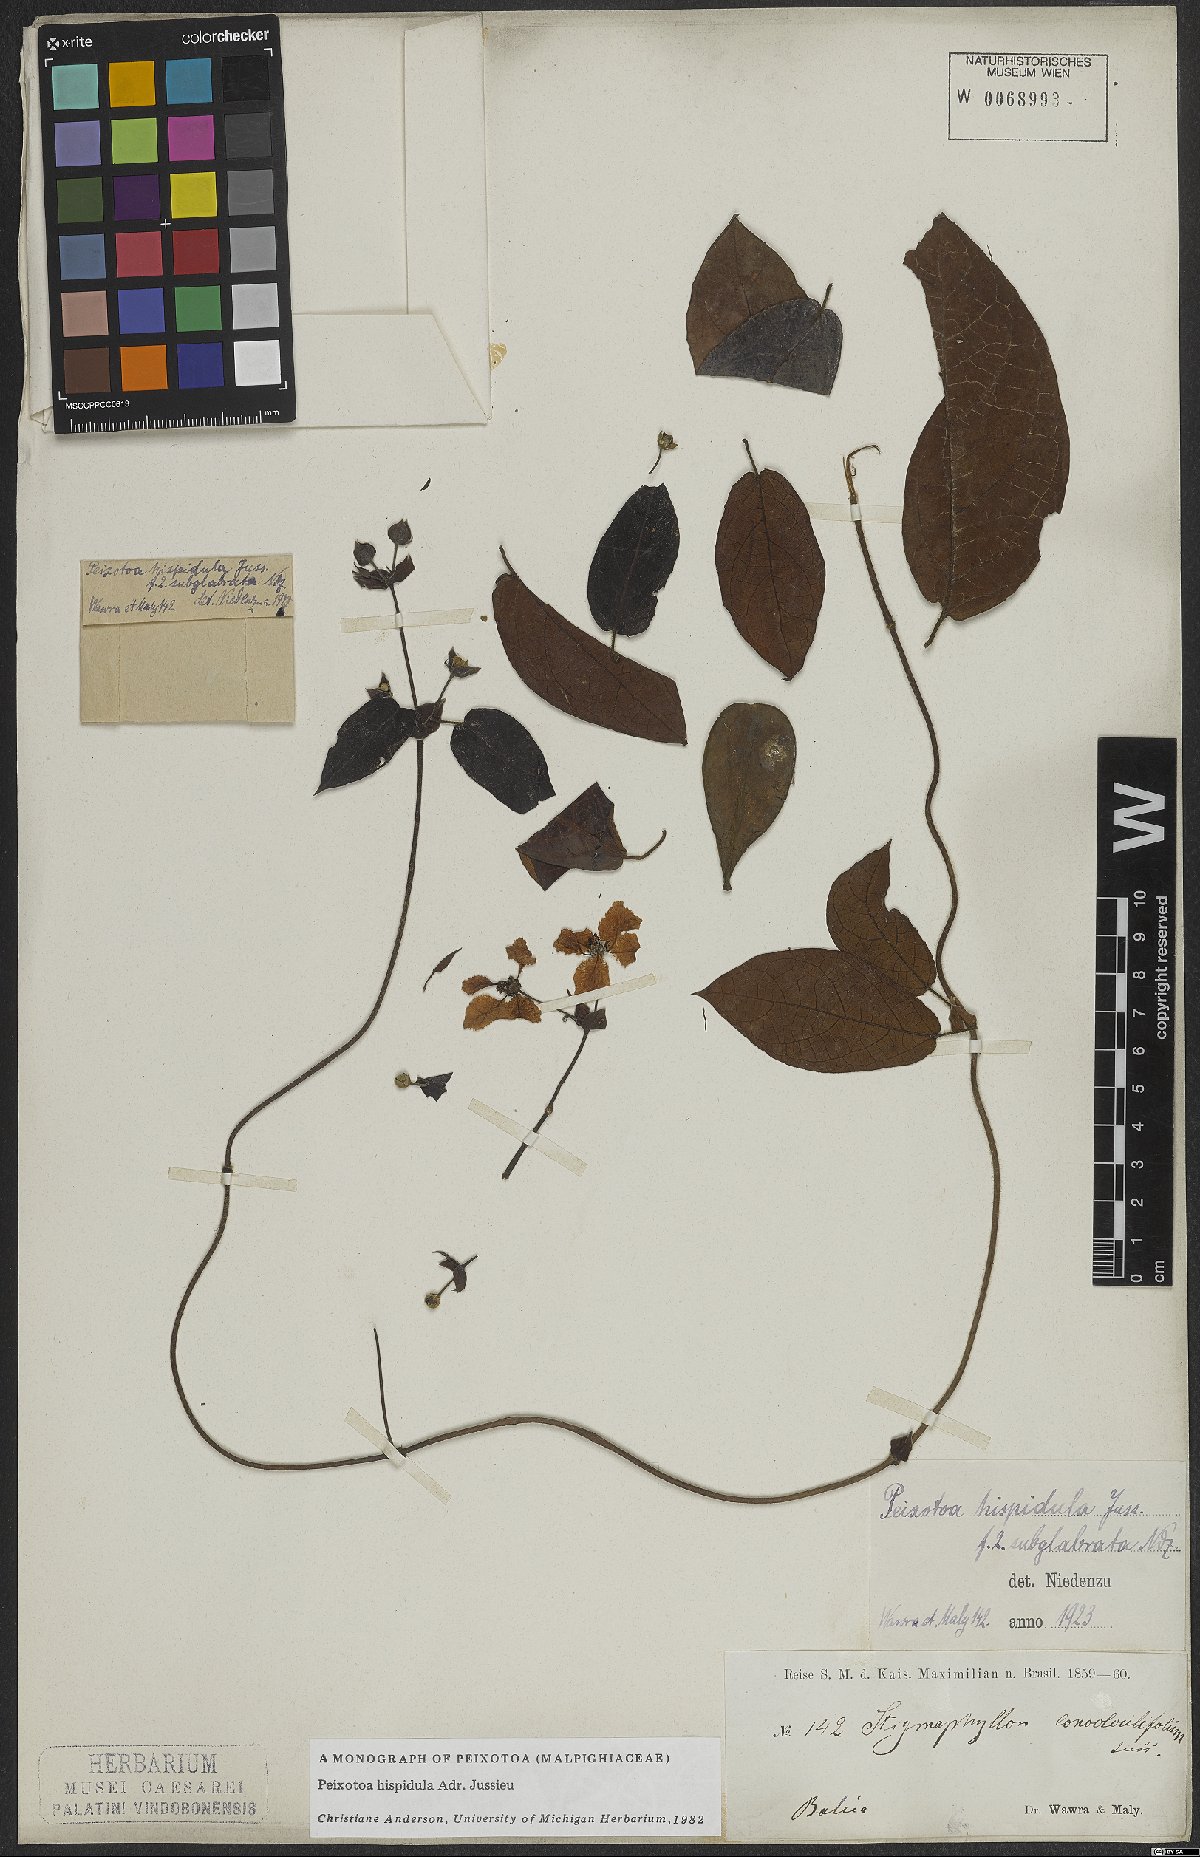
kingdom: Plantae
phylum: Tracheophyta
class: Magnoliopsida
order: Malpighiales
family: Malpighiaceae
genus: Peixotoa
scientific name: Peixotoa hispidula
